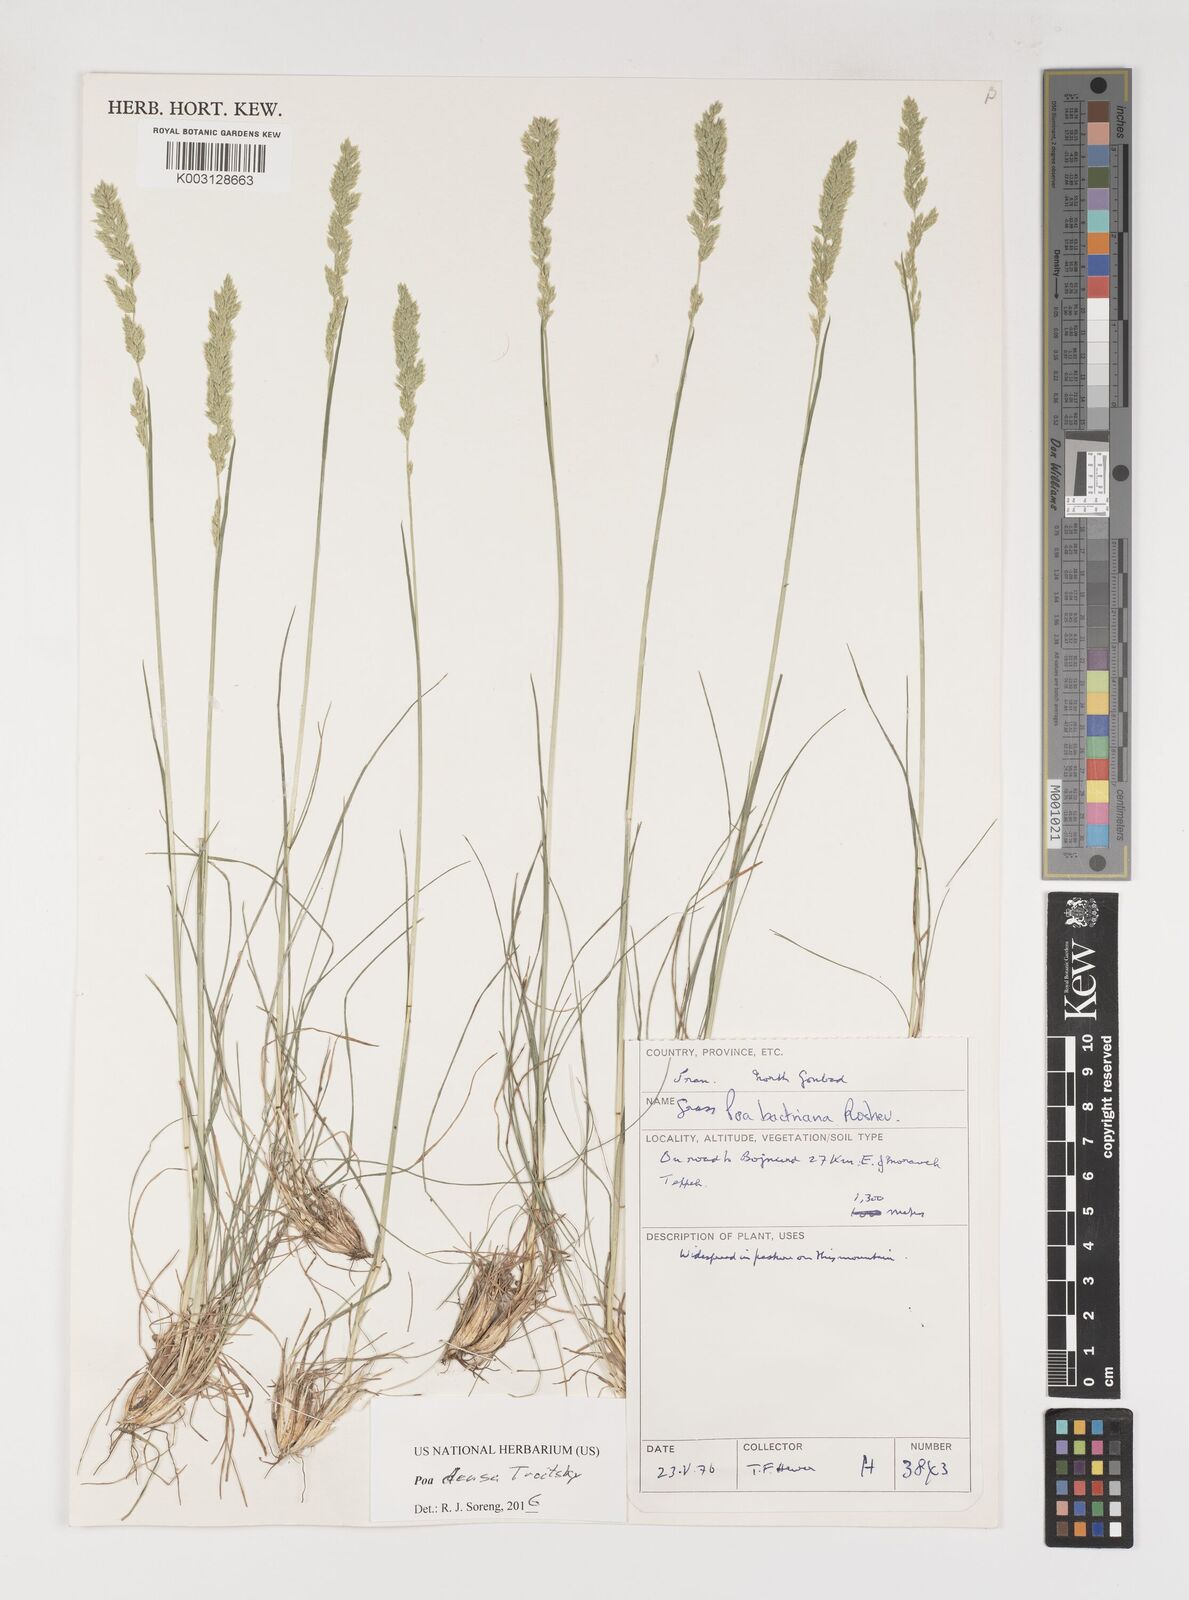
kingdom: Plantae
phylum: Tracheophyta
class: Liliopsida
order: Poales
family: Poaceae
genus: Poa
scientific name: Poa densa
